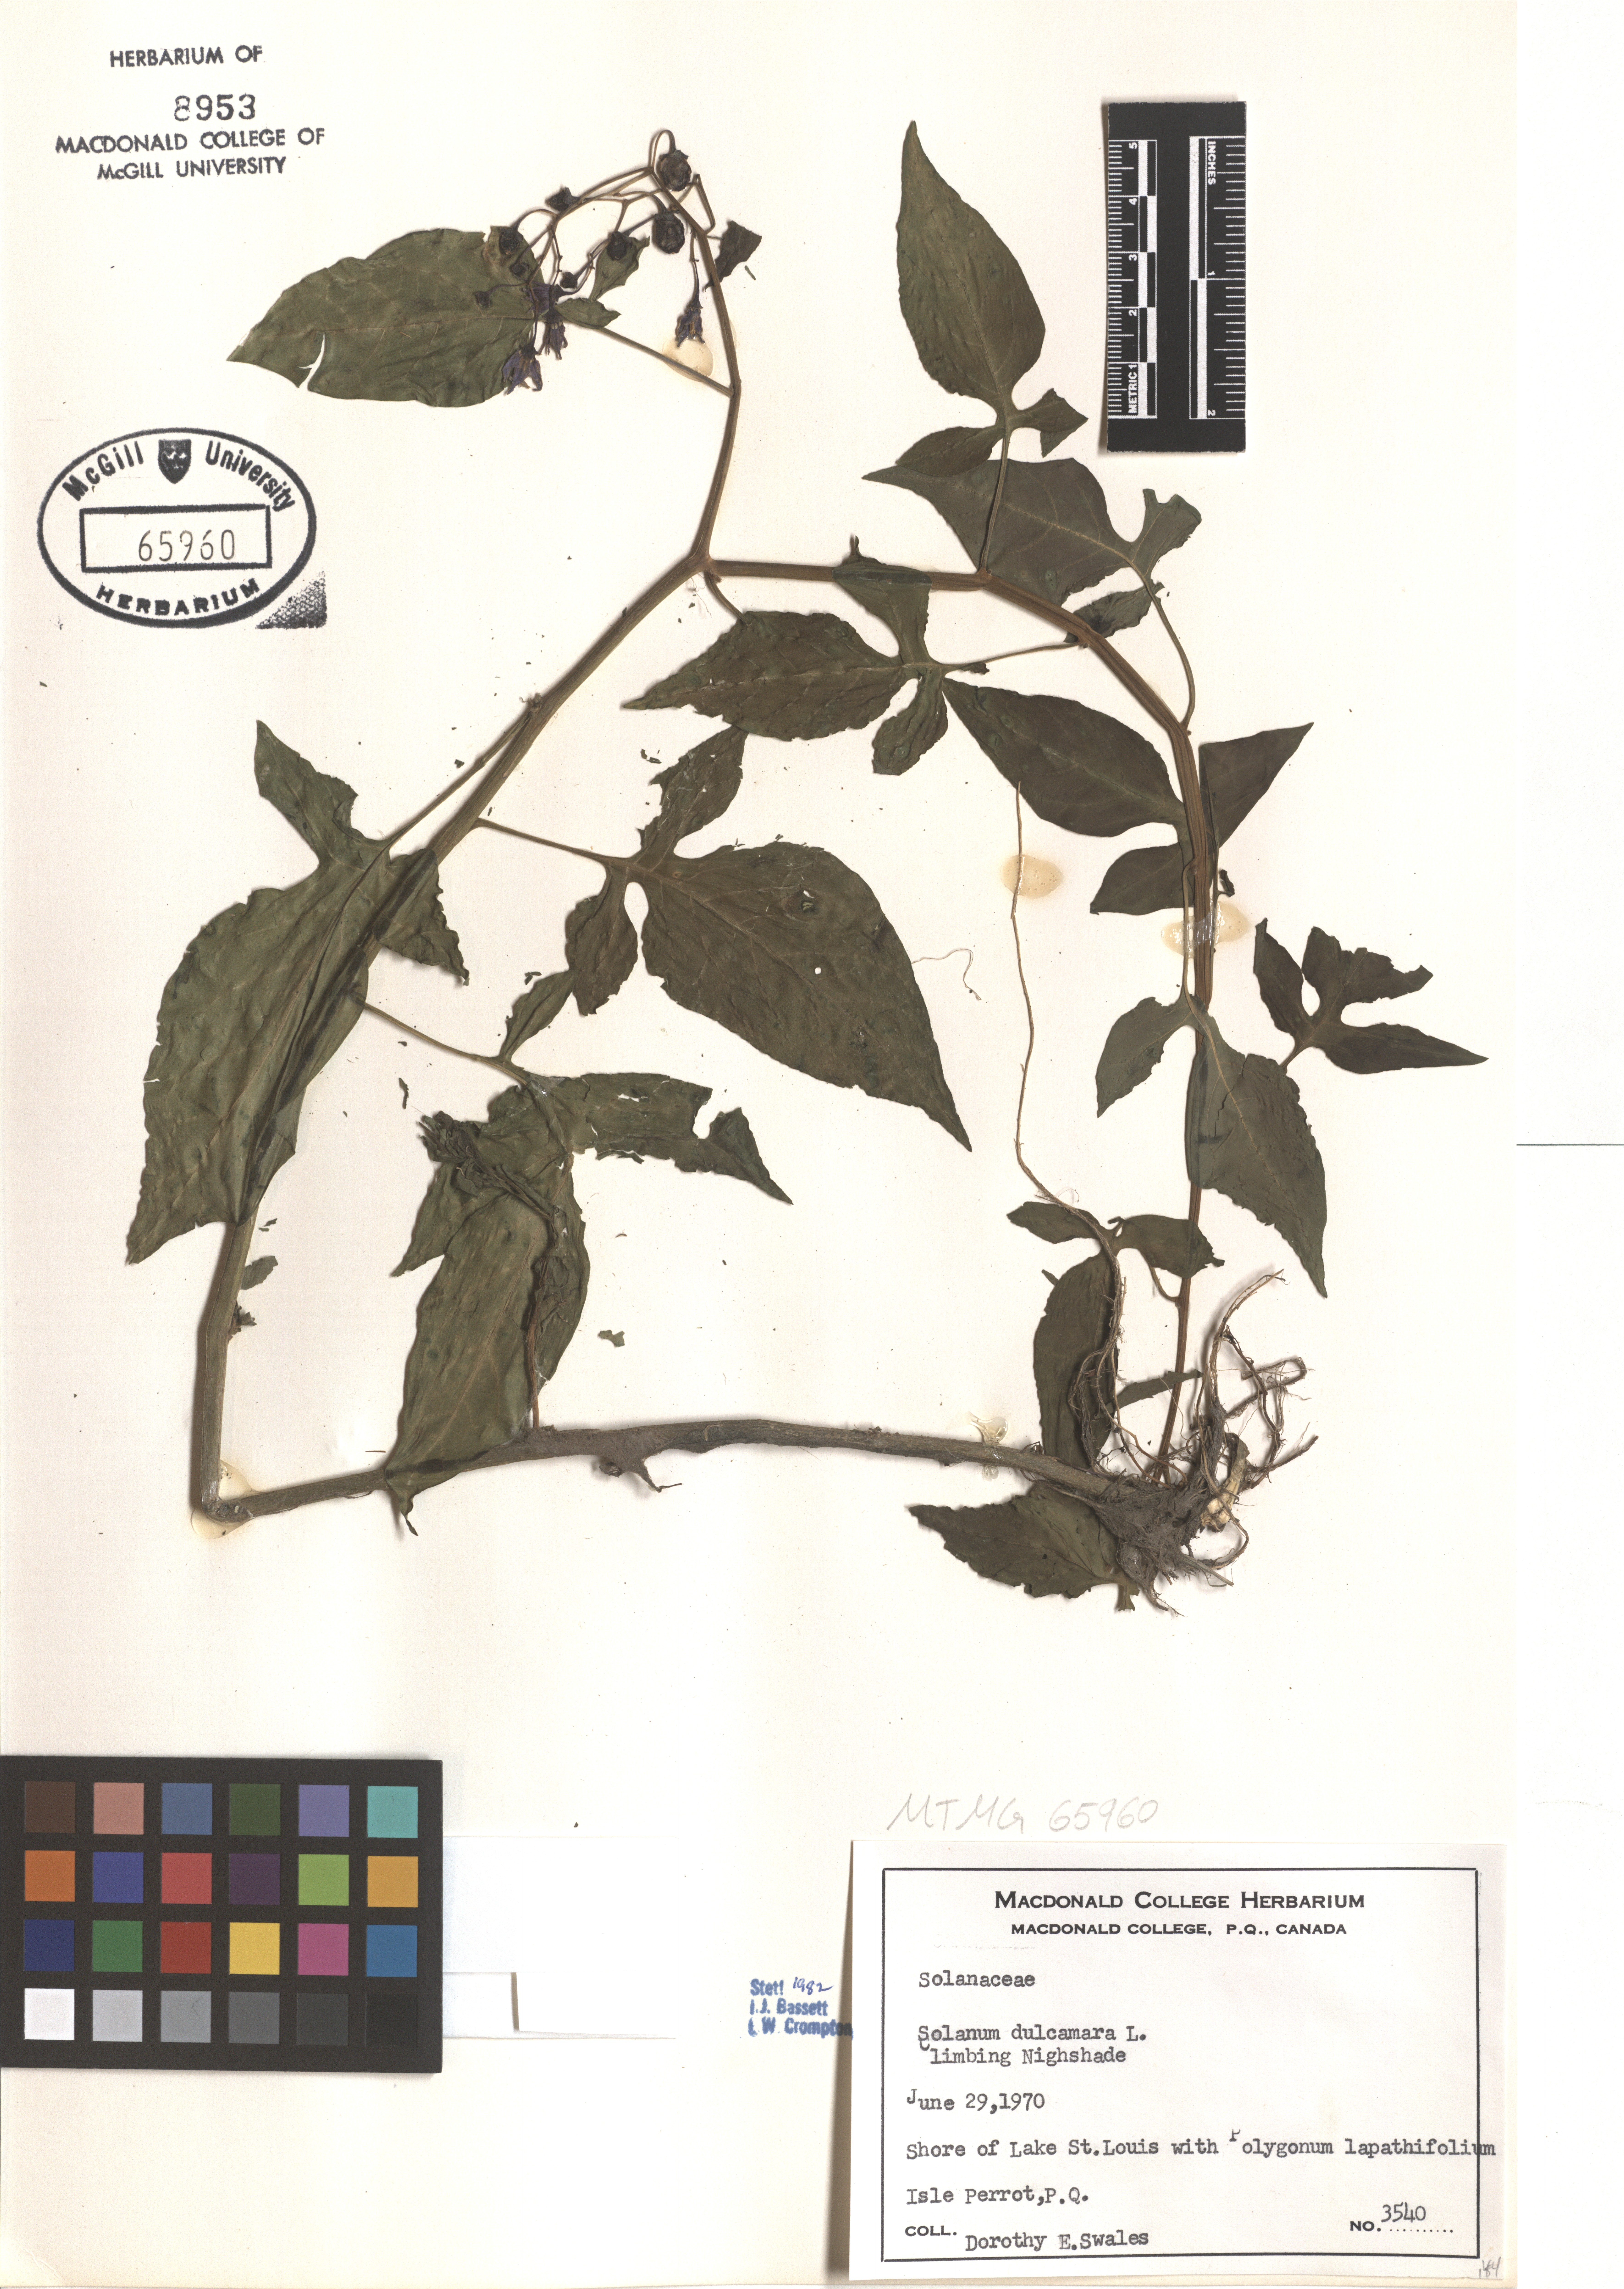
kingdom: Plantae
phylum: Tracheophyta
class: Magnoliopsida
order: Solanales
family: Solanaceae
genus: Solanum
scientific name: Solanum dulcamara
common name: Climbing nightshade
